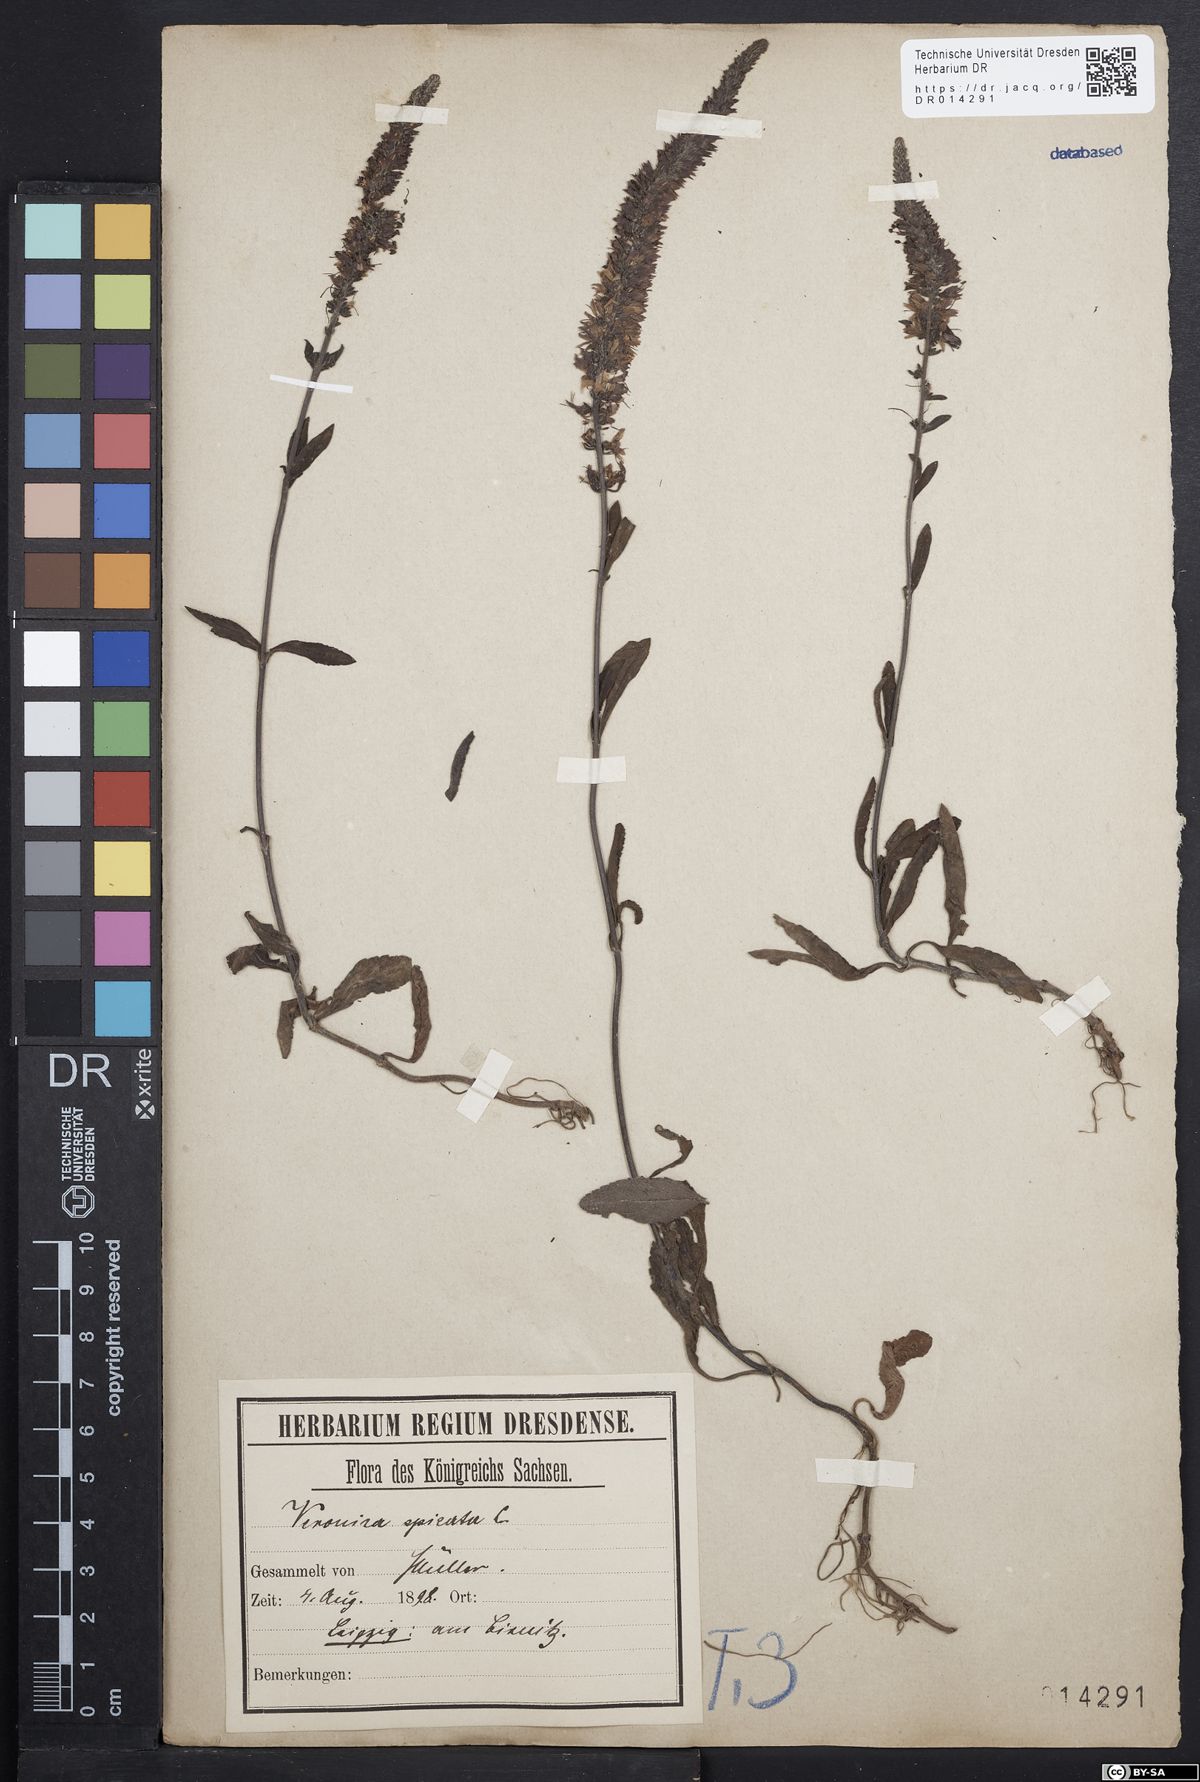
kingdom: Plantae
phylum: Tracheophyta
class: Magnoliopsida
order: Lamiales
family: Plantaginaceae
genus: Veronica
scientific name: Veronica spicata
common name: Spiked speedwell
